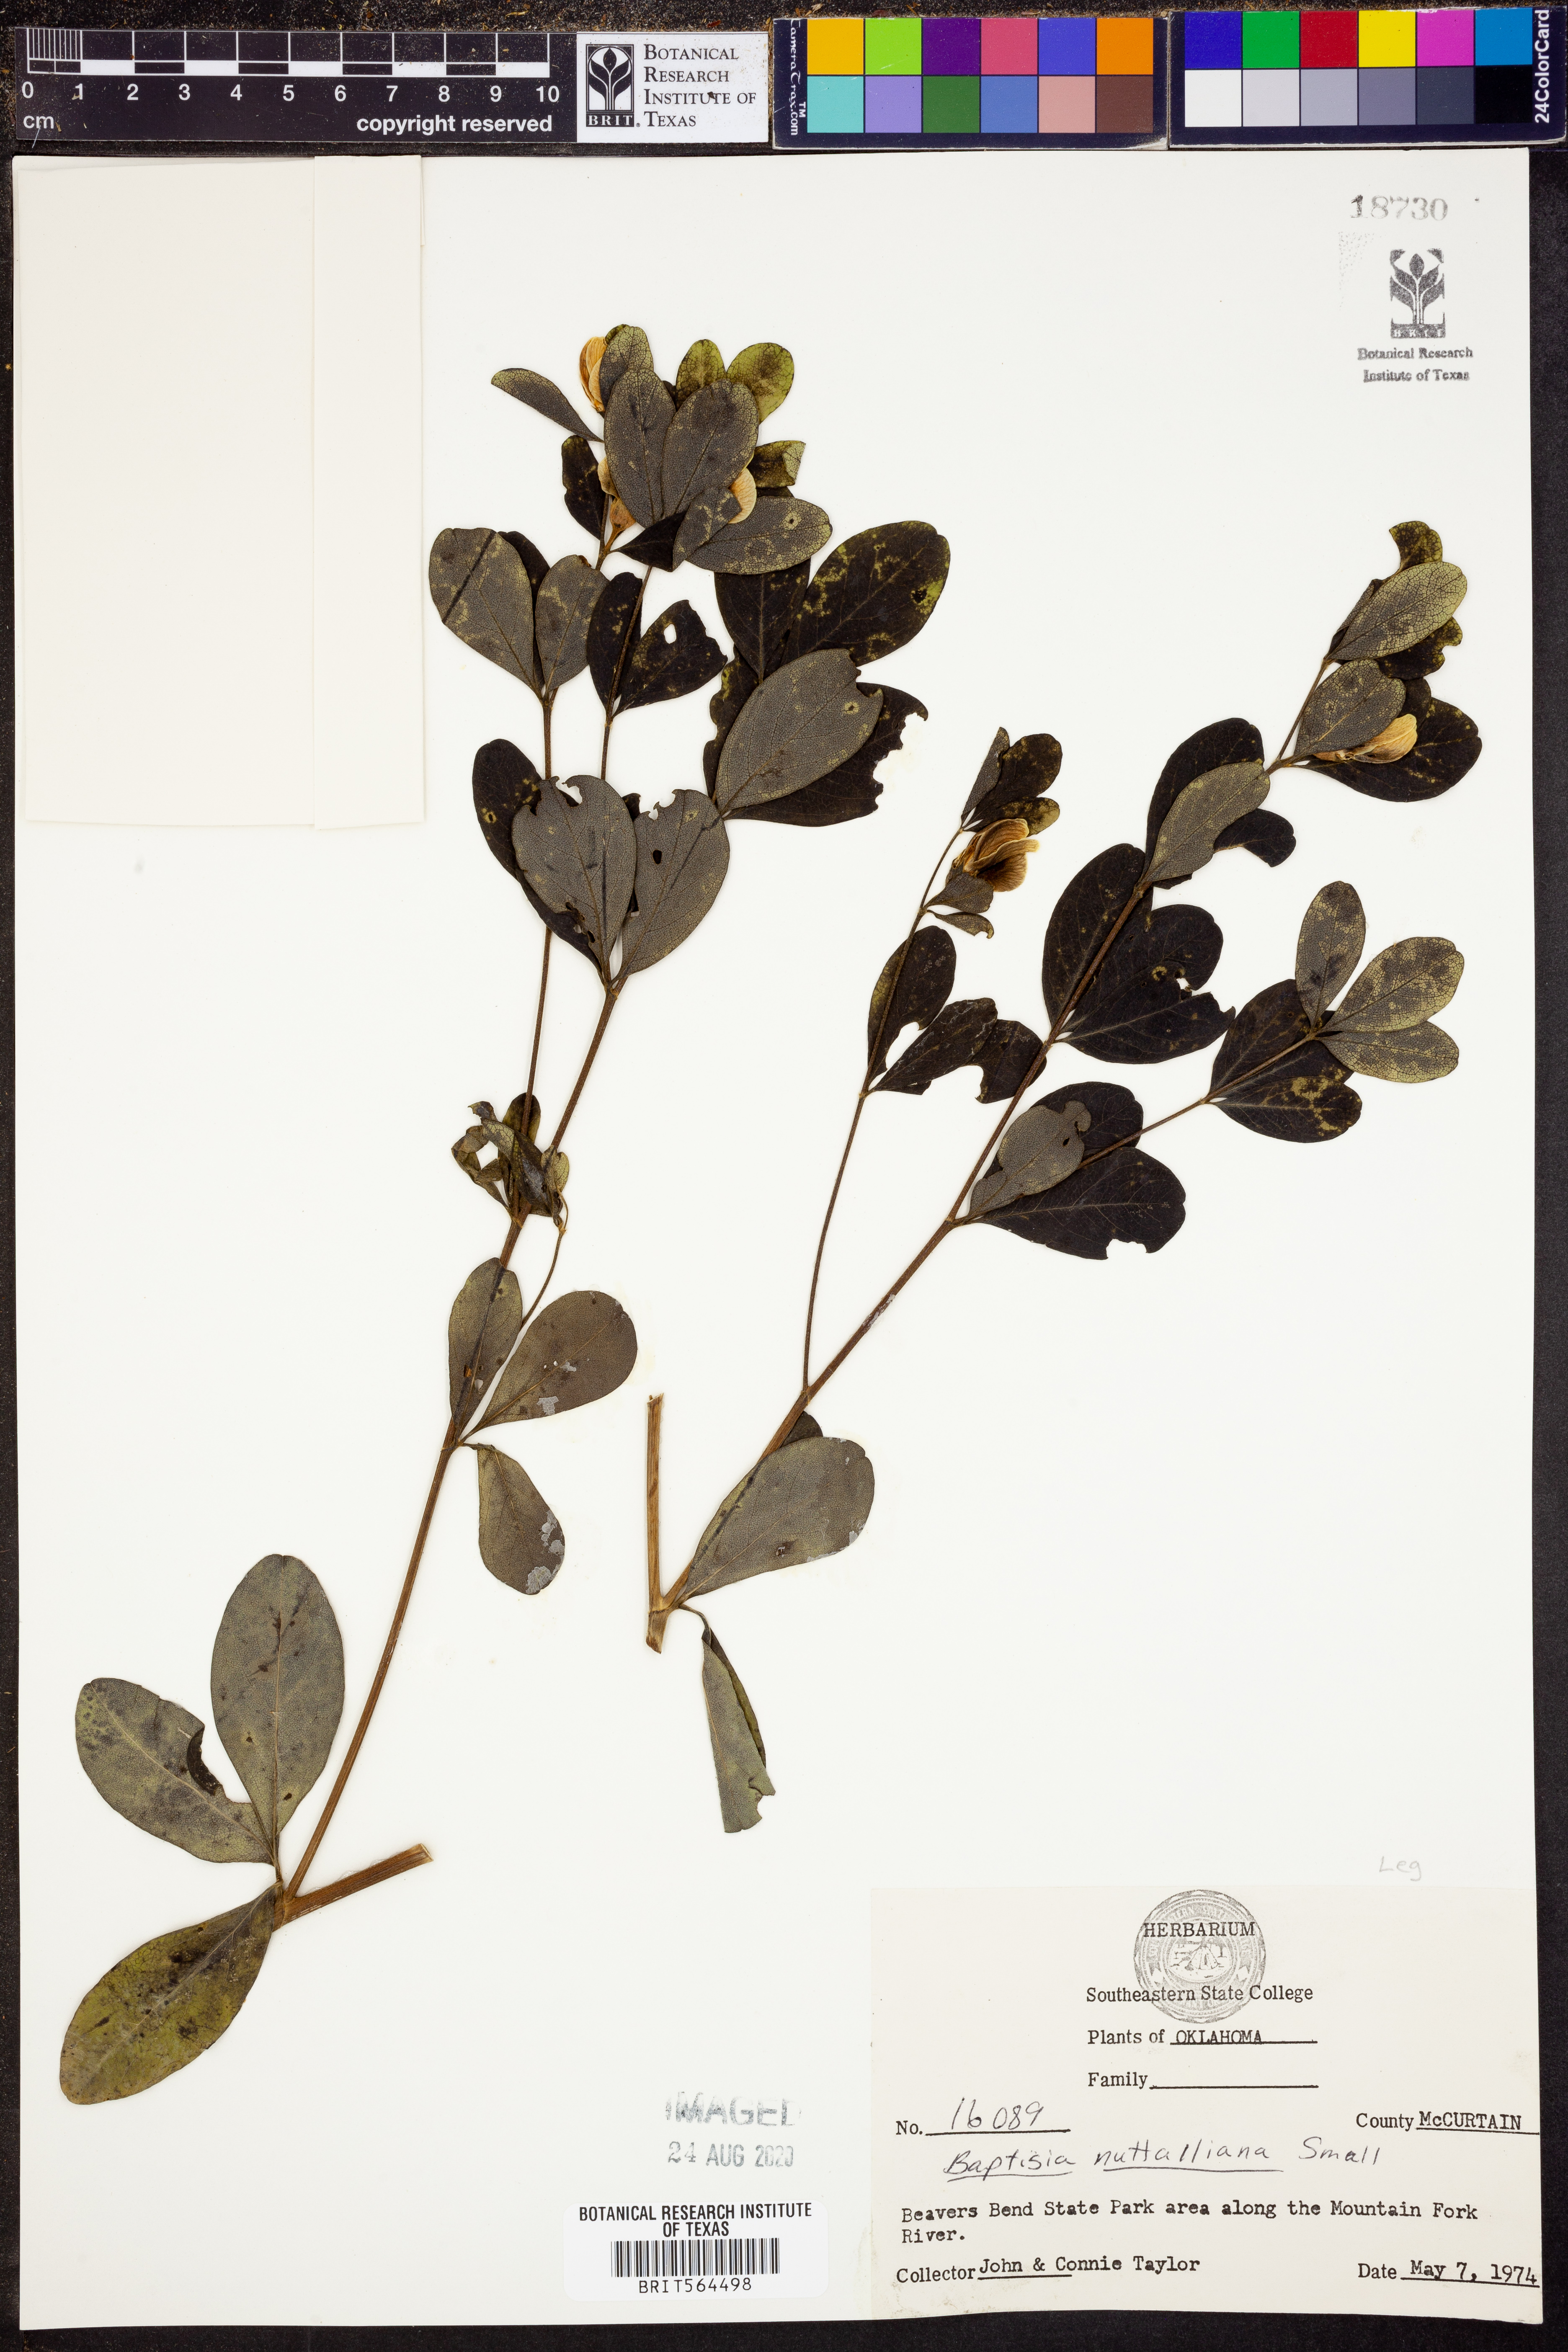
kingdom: Plantae
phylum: Tracheophyta
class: Magnoliopsida
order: Fabales
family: Fabaceae
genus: Baptisia
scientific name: Baptisia nuttalliana
